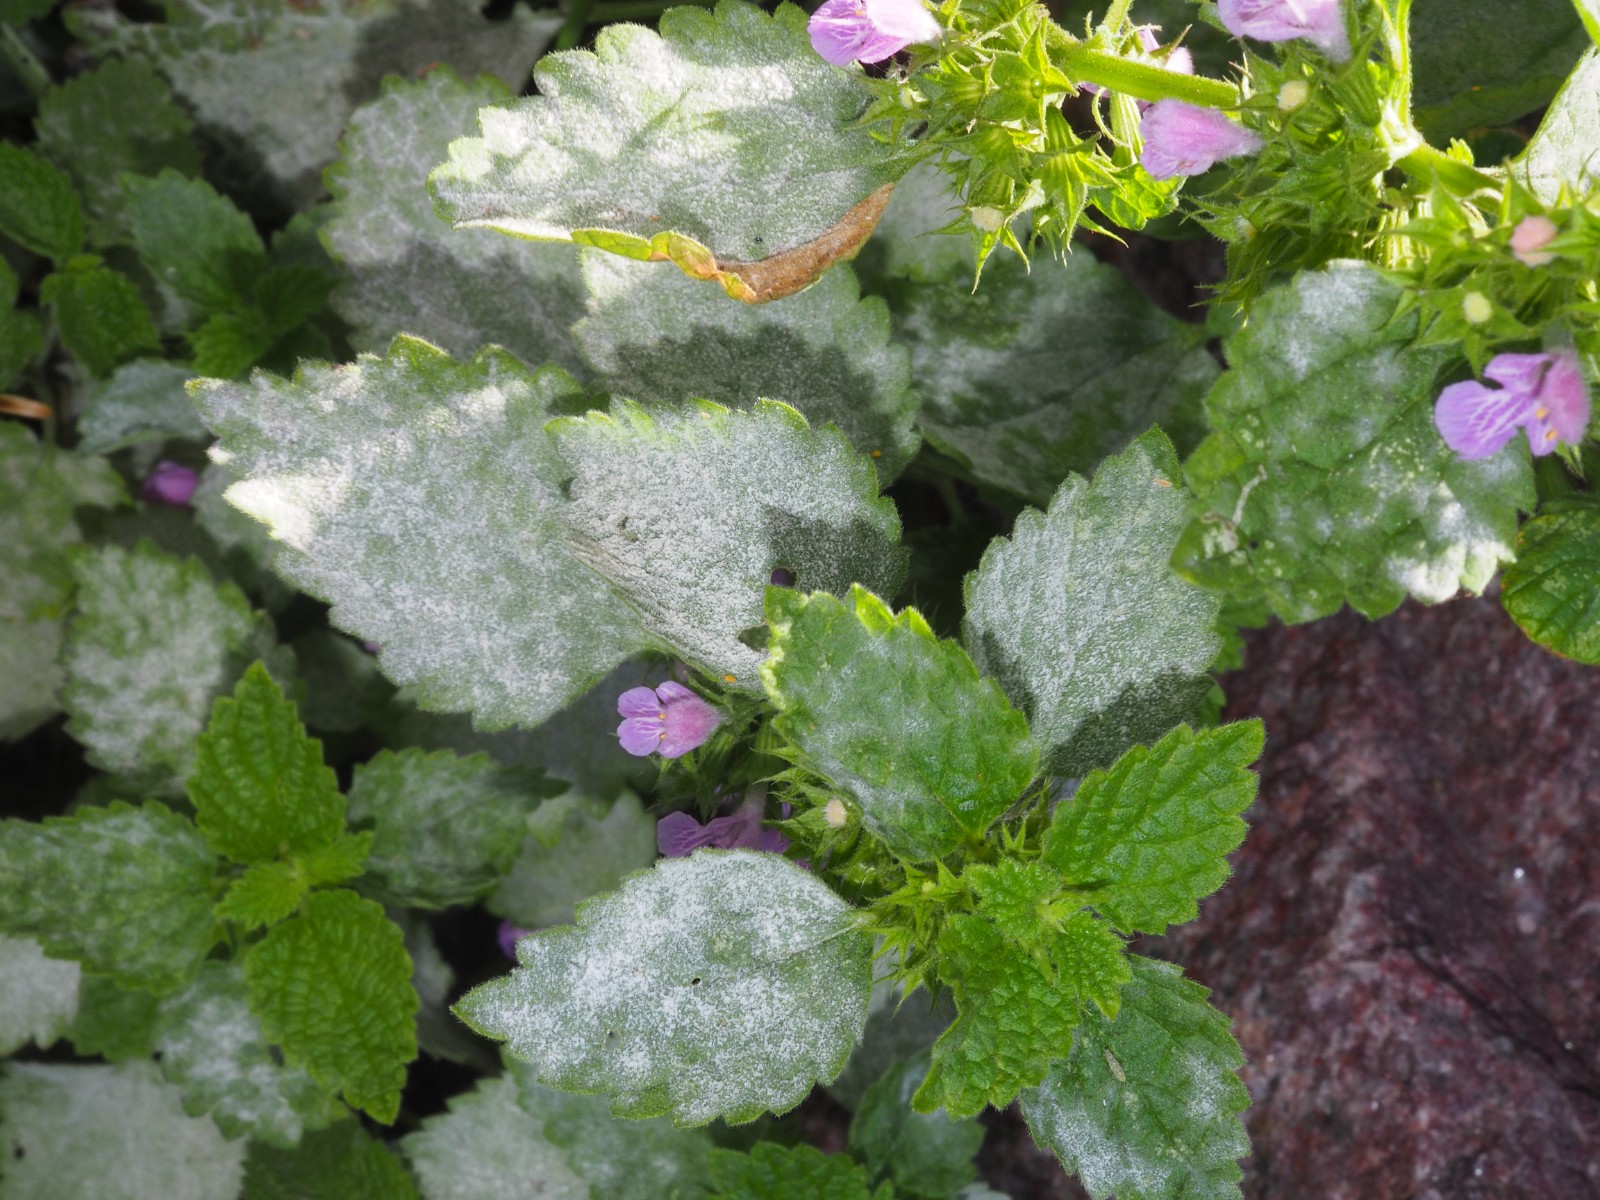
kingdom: Fungi
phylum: Ascomycota
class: Leotiomycetes
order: Helotiales
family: Erysiphaceae
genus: Neoerysiphe
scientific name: Neoerysiphe galeopsidis
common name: Mint mildew
